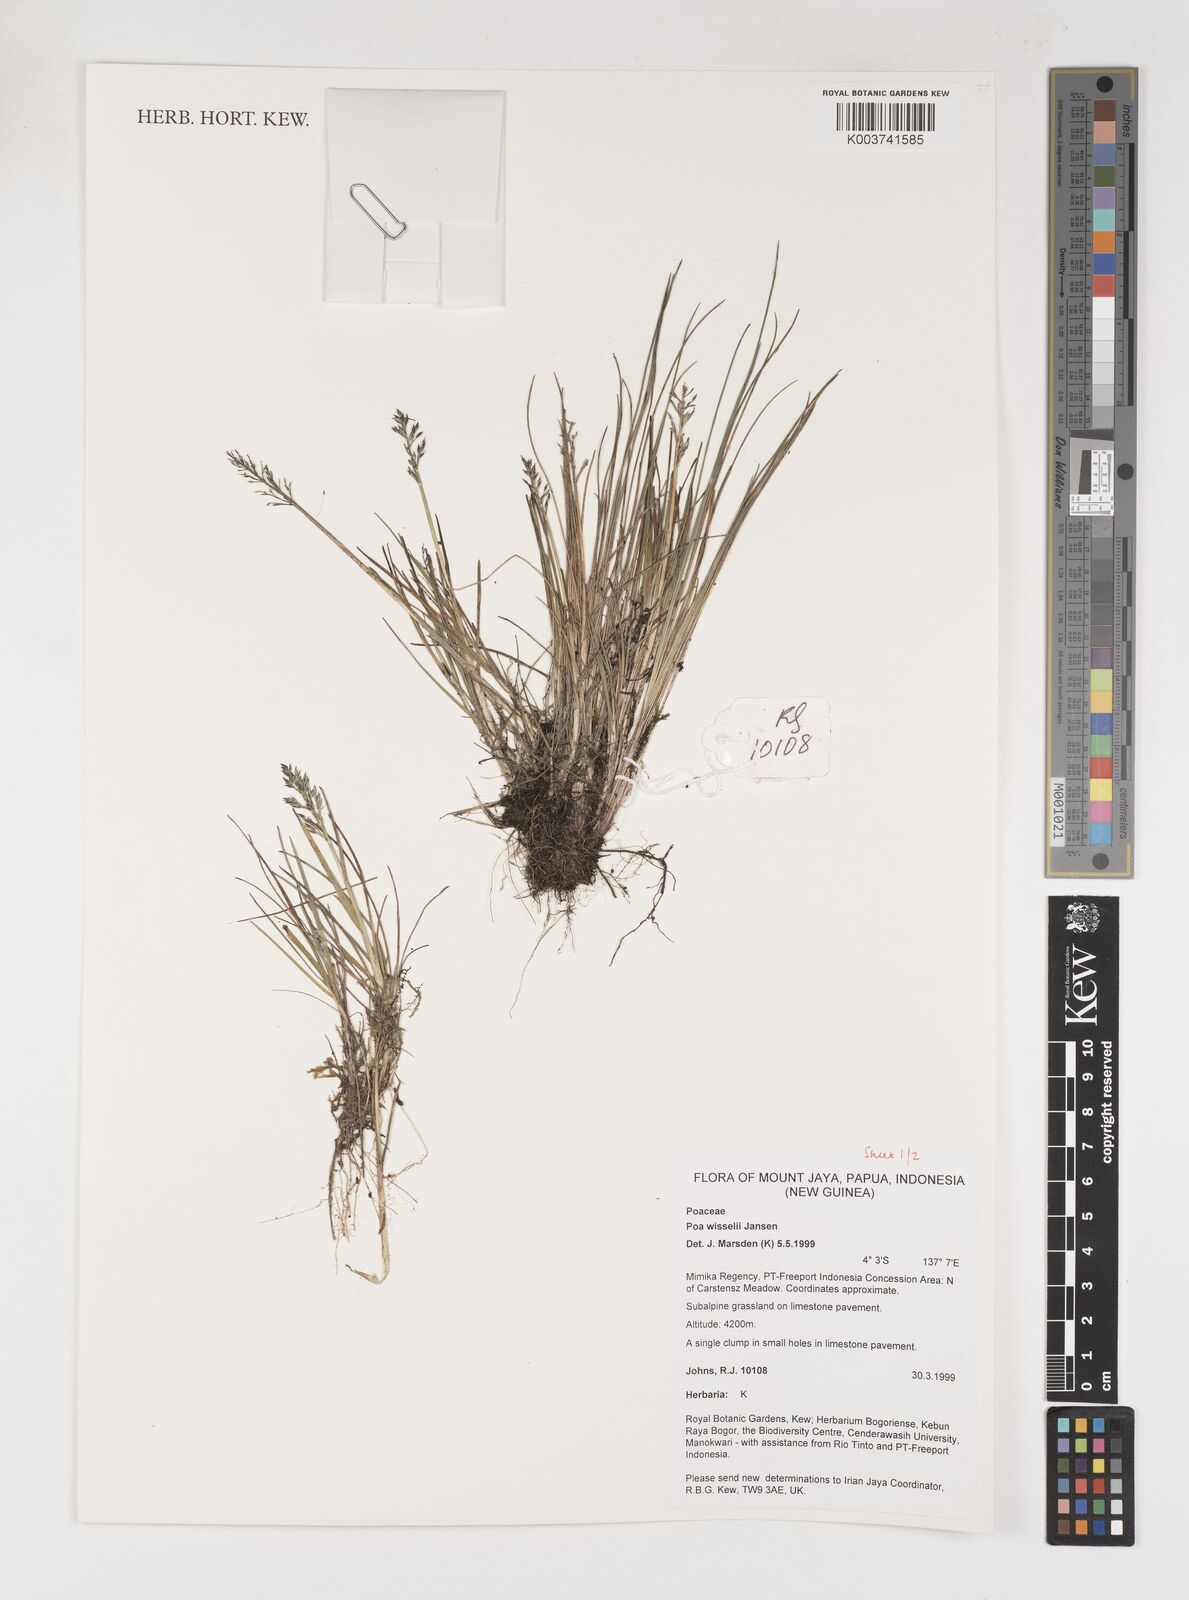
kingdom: Plantae
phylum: Tracheophyta
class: Liliopsida
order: Poales
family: Poaceae
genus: Poa
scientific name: Poa wisselii
